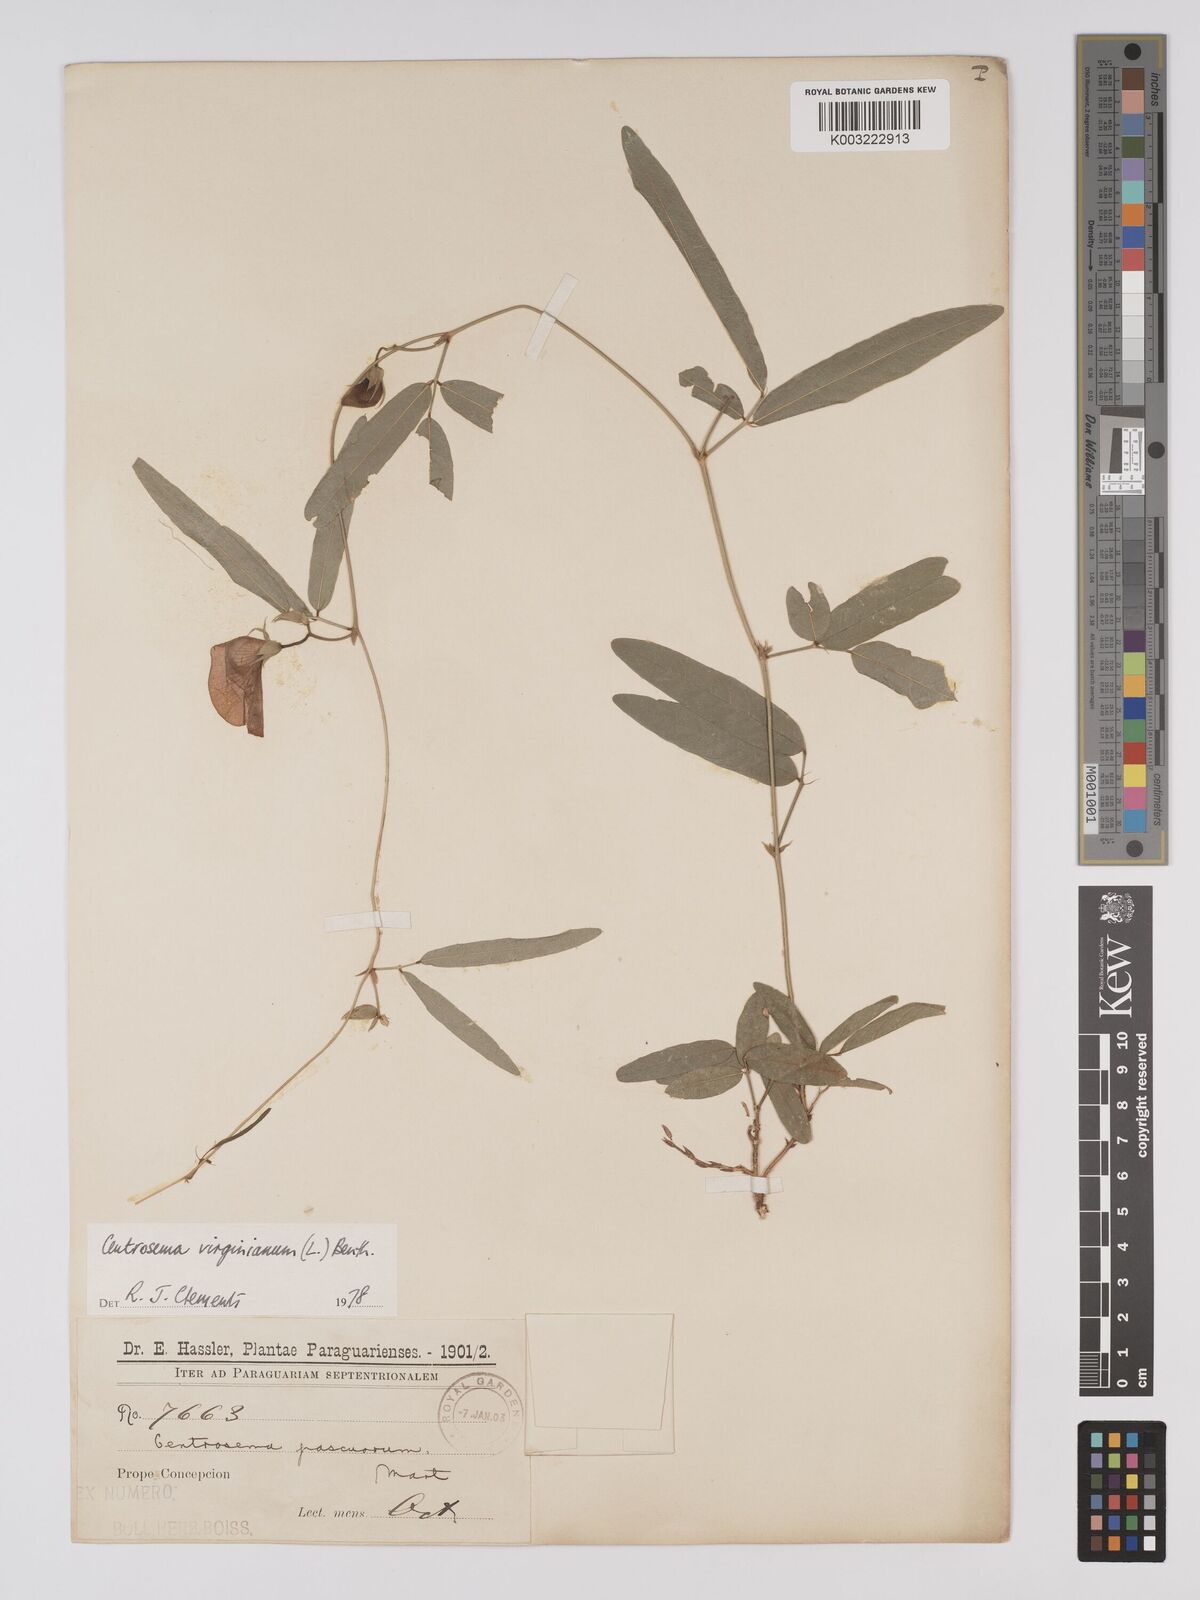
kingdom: Plantae
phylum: Tracheophyta
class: Magnoliopsida
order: Fabales
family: Fabaceae
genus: Centrosema
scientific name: Centrosema virginianum
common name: Butterfly-pea
